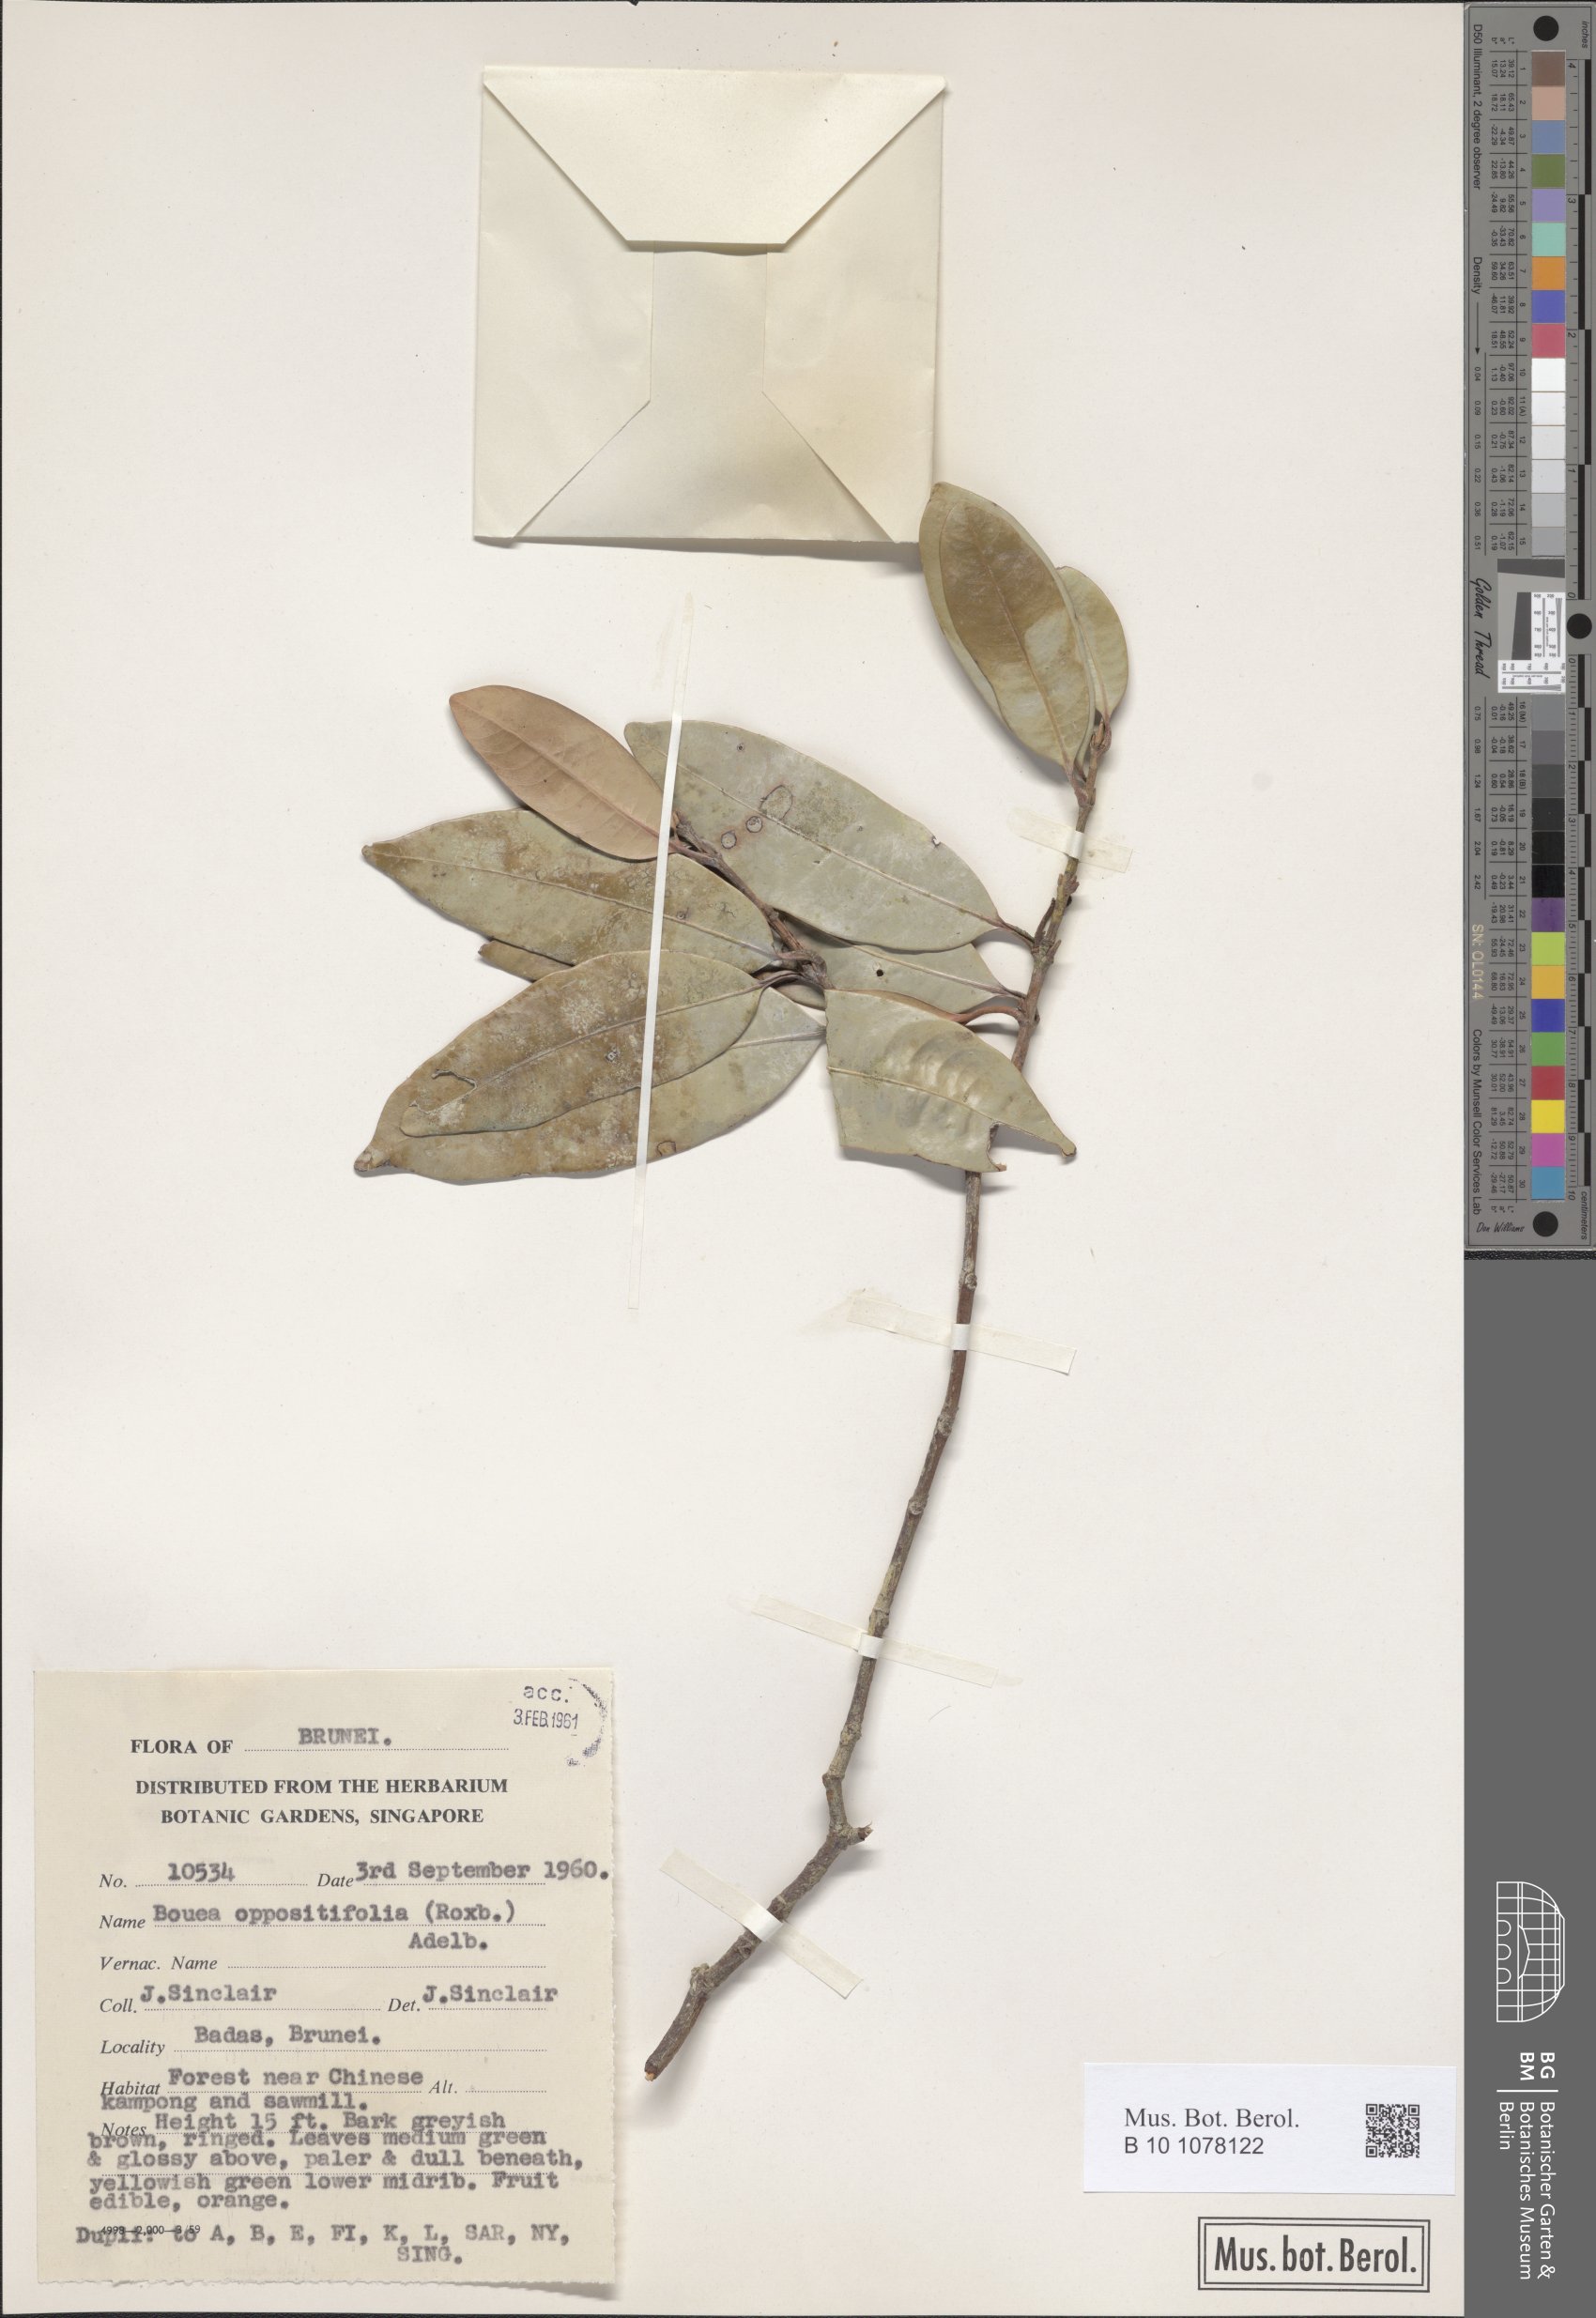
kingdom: Plantae
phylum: Tracheophyta
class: Magnoliopsida
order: Sapindales
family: Anacardiaceae
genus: Bouea
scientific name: Bouea oppositifolia
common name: Narrow-leaved kundang
